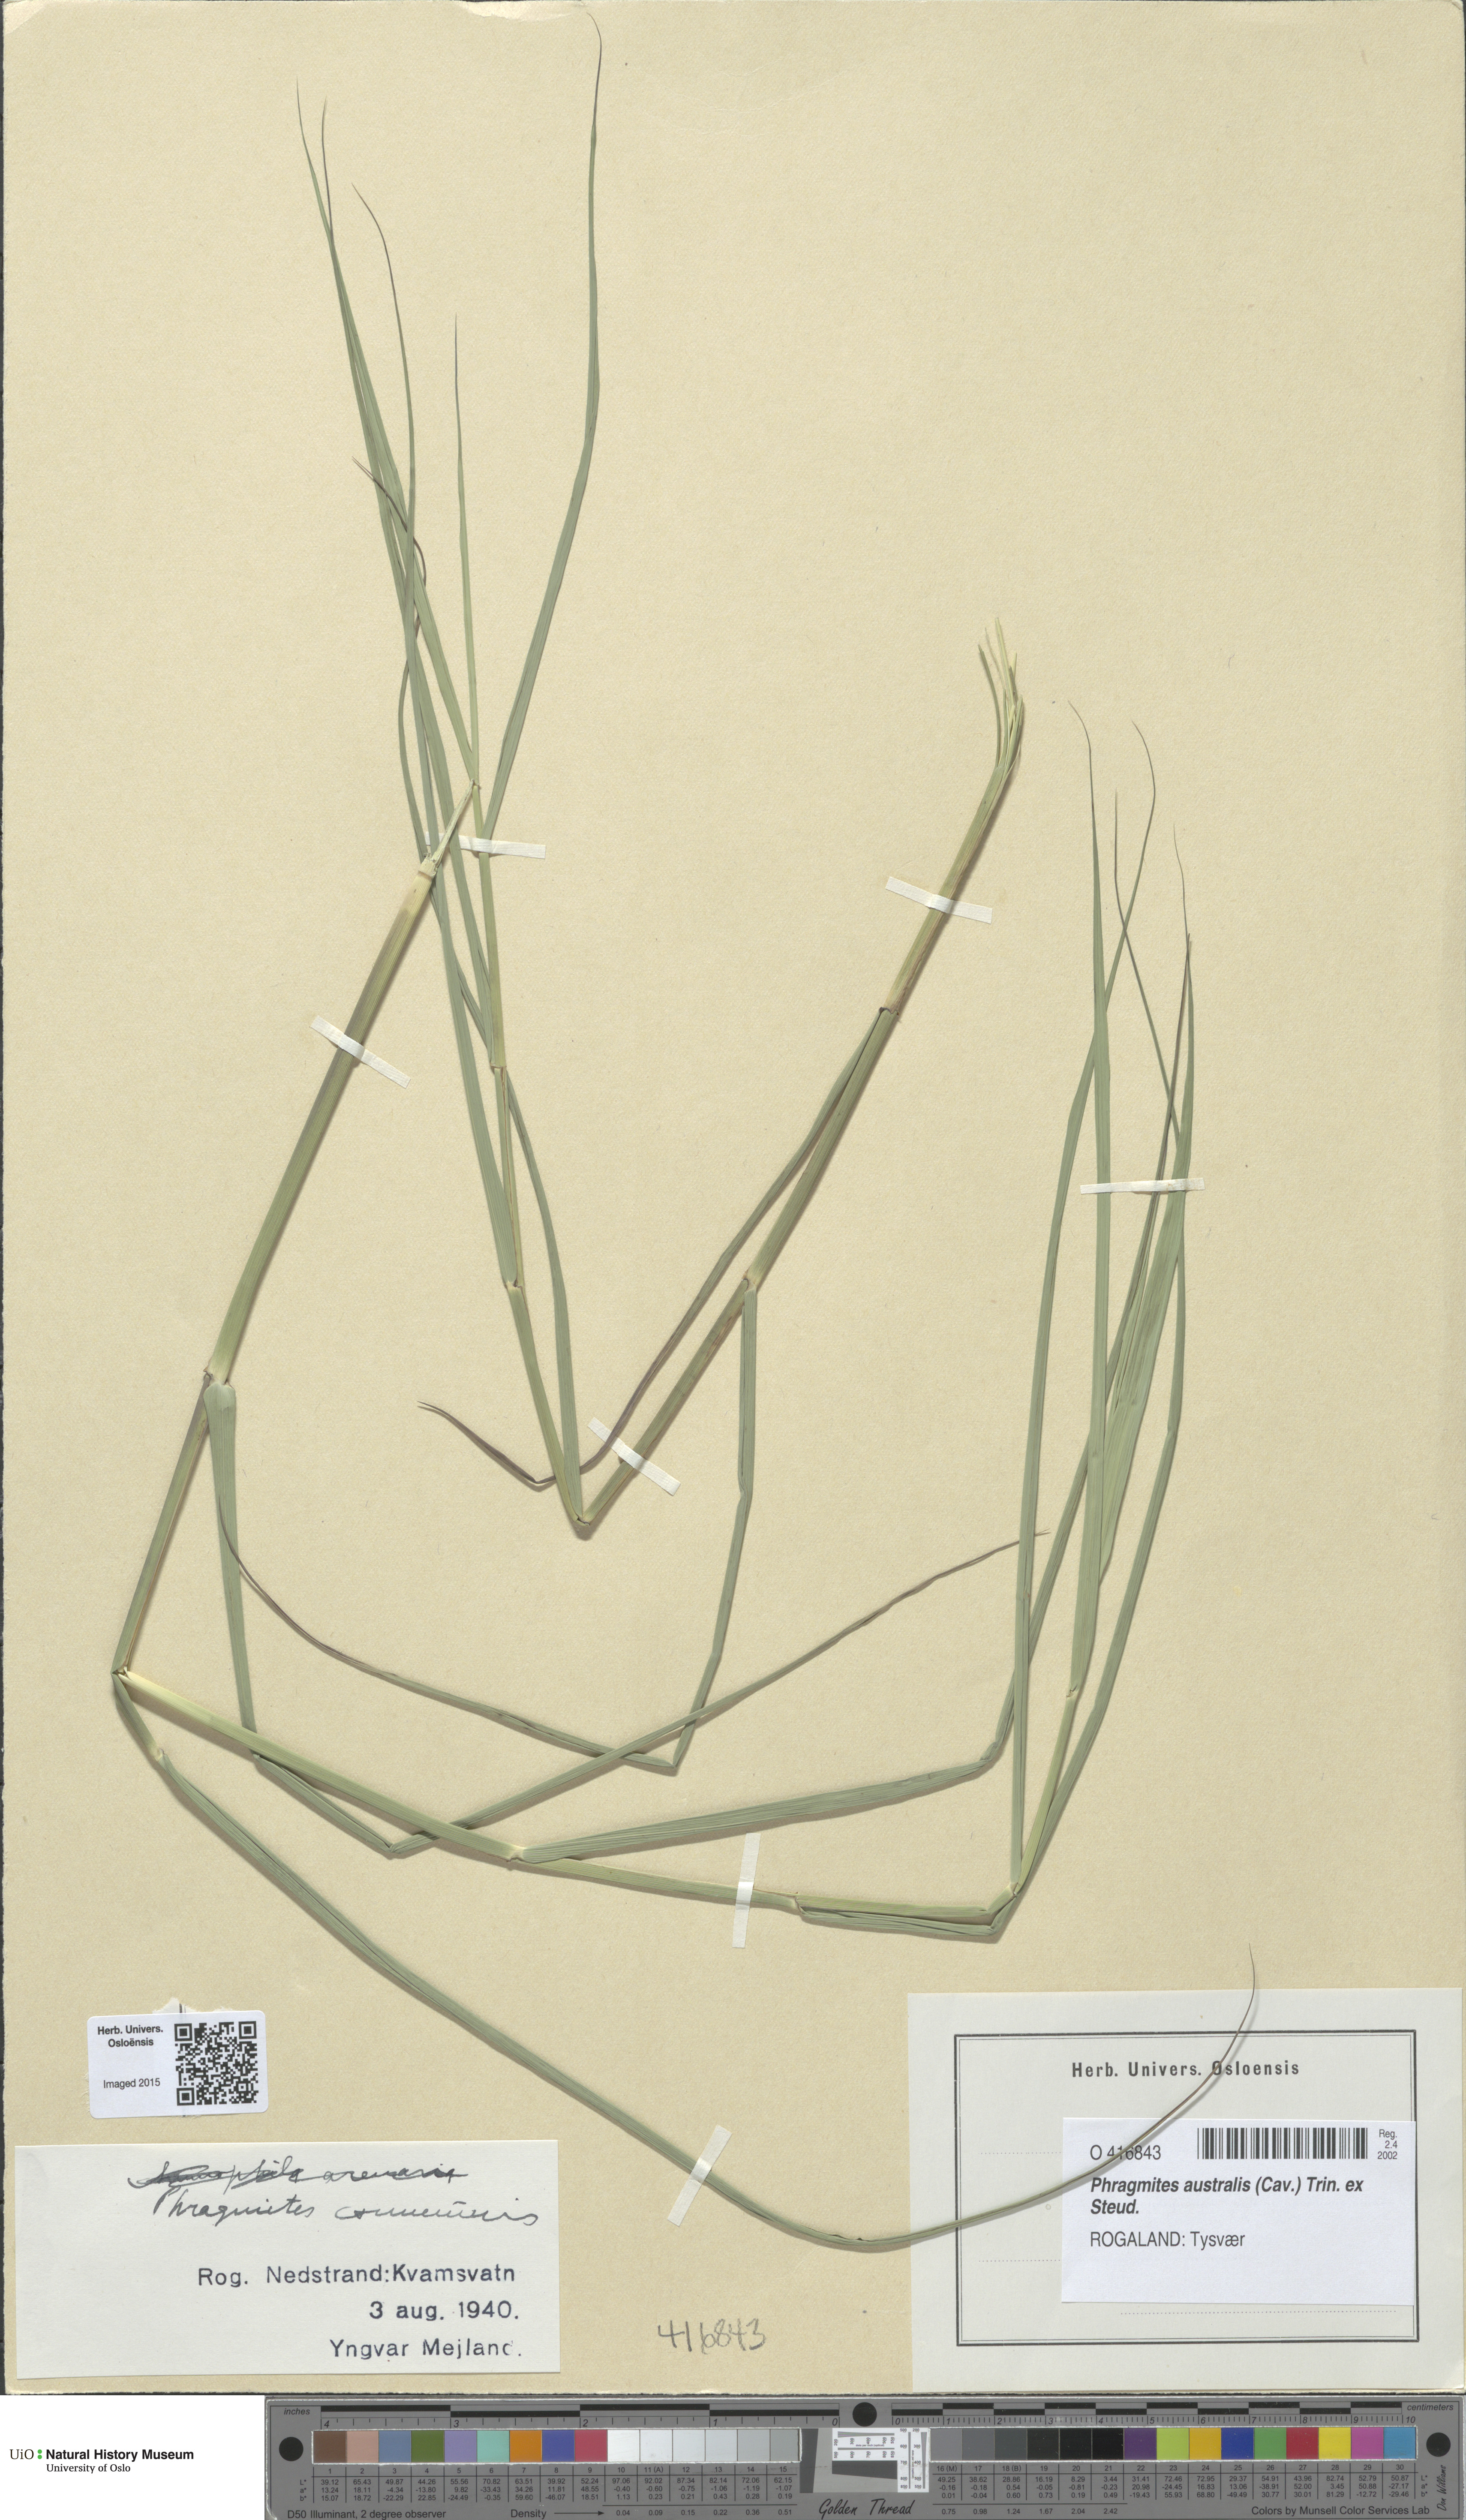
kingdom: Plantae
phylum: Tracheophyta
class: Liliopsida
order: Poales
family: Poaceae
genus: Phragmites
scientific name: Phragmites australis
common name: Common reed
